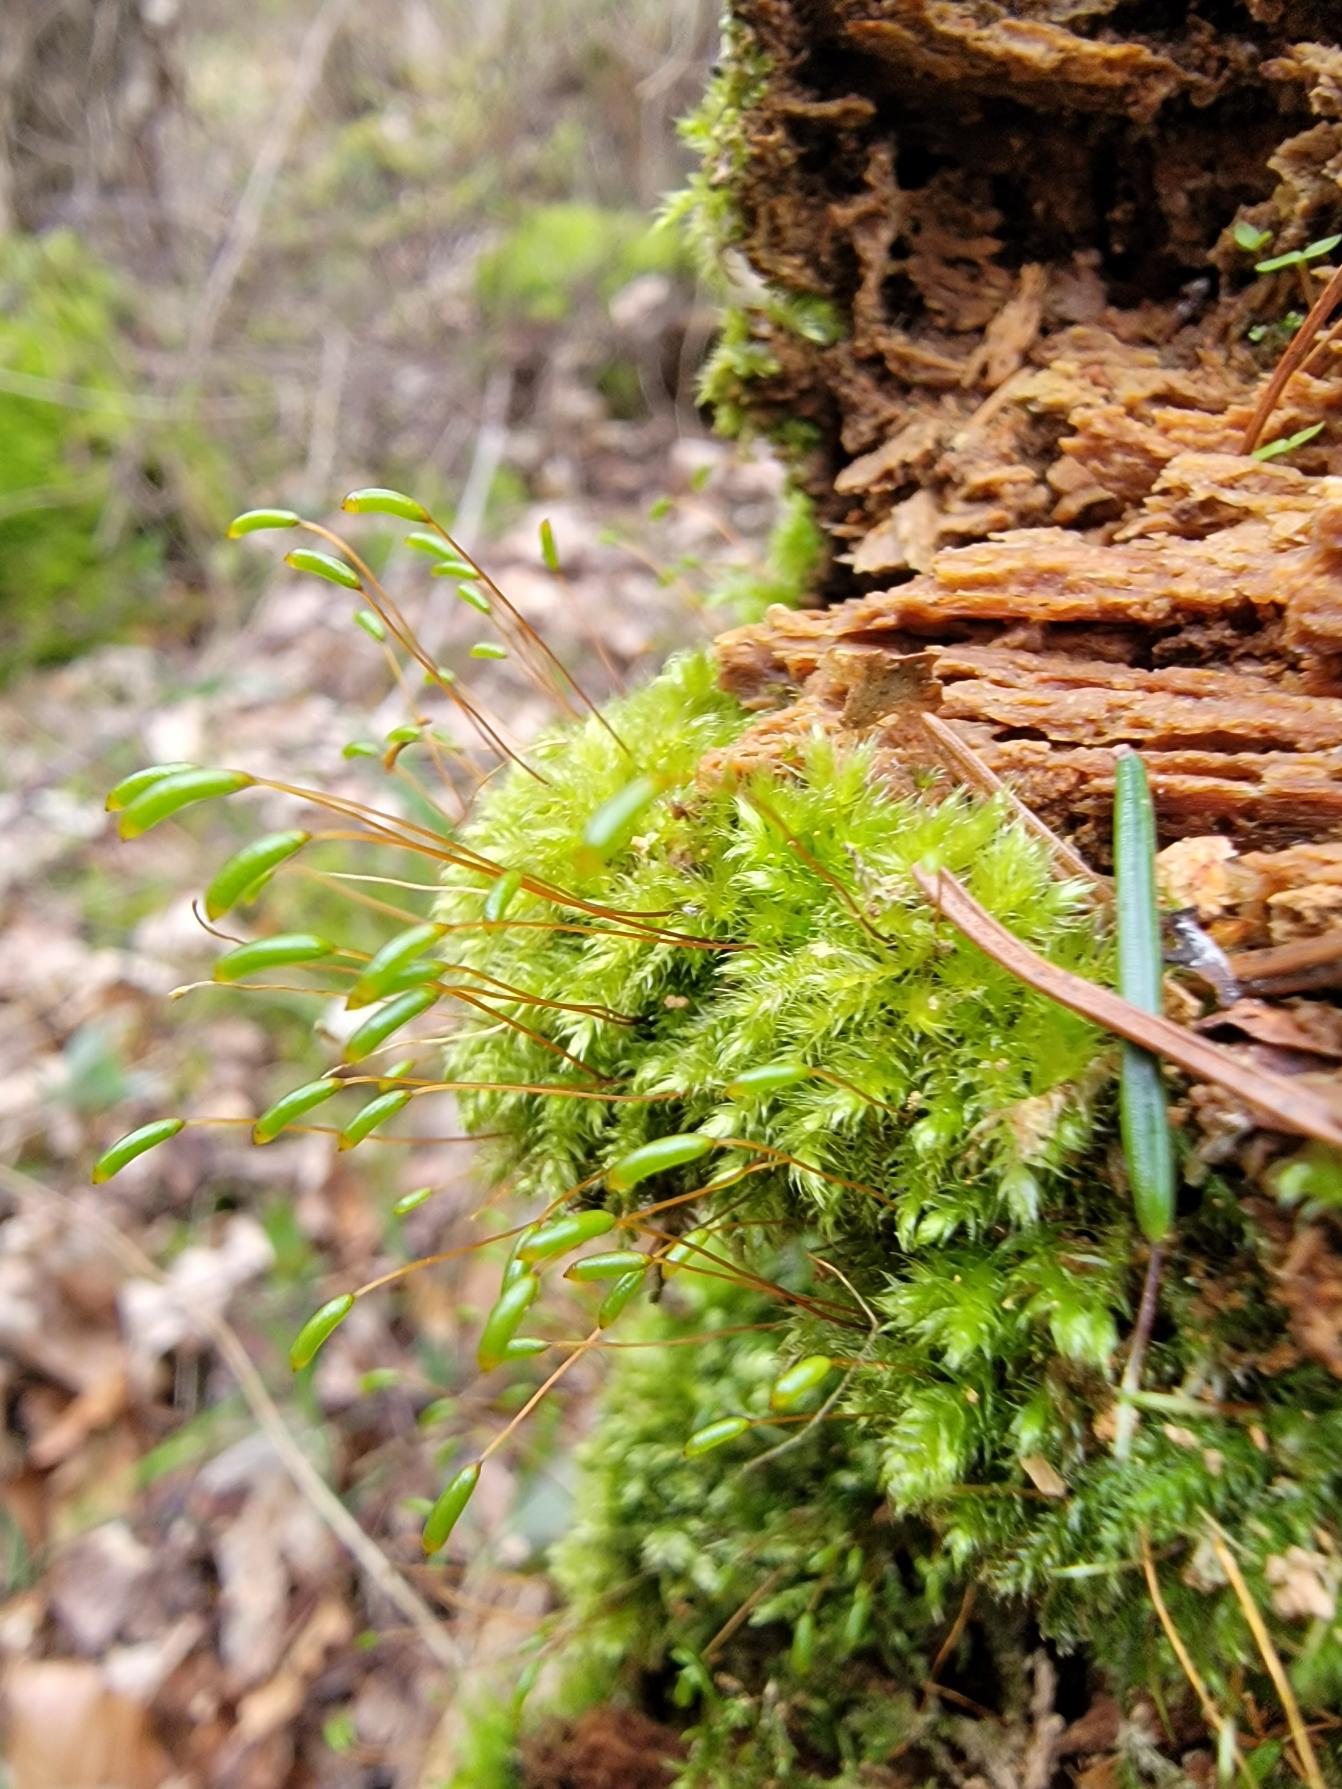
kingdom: Plantae
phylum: Bryophyta
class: Bryopsida
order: Hypnales
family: Plagiotheciaceae
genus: Herzogiella
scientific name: Herzogiella seligeri
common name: Stub-pølsekapsel
